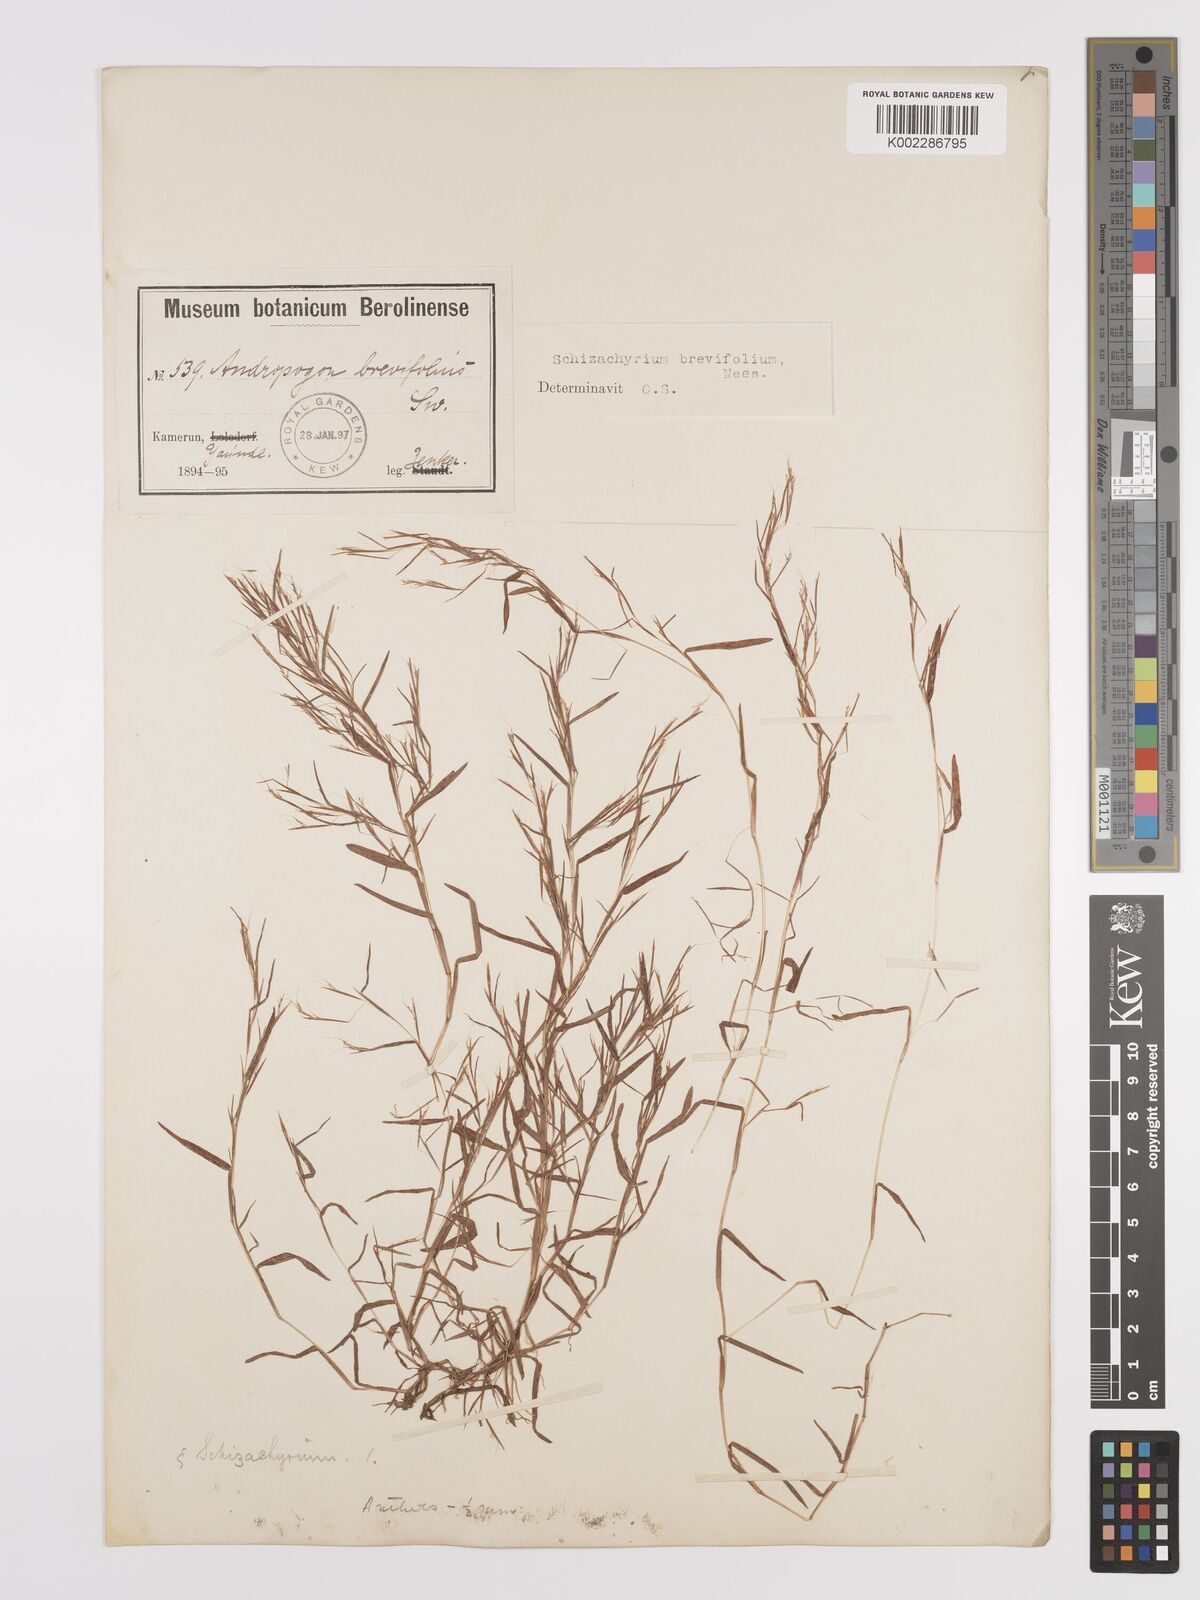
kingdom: Plantae
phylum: Tracheophyta
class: Liliopsida
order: Poales
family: Poaceae
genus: Schizachyrium
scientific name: Schizachyrium brevifolium
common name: Serillo dulce
